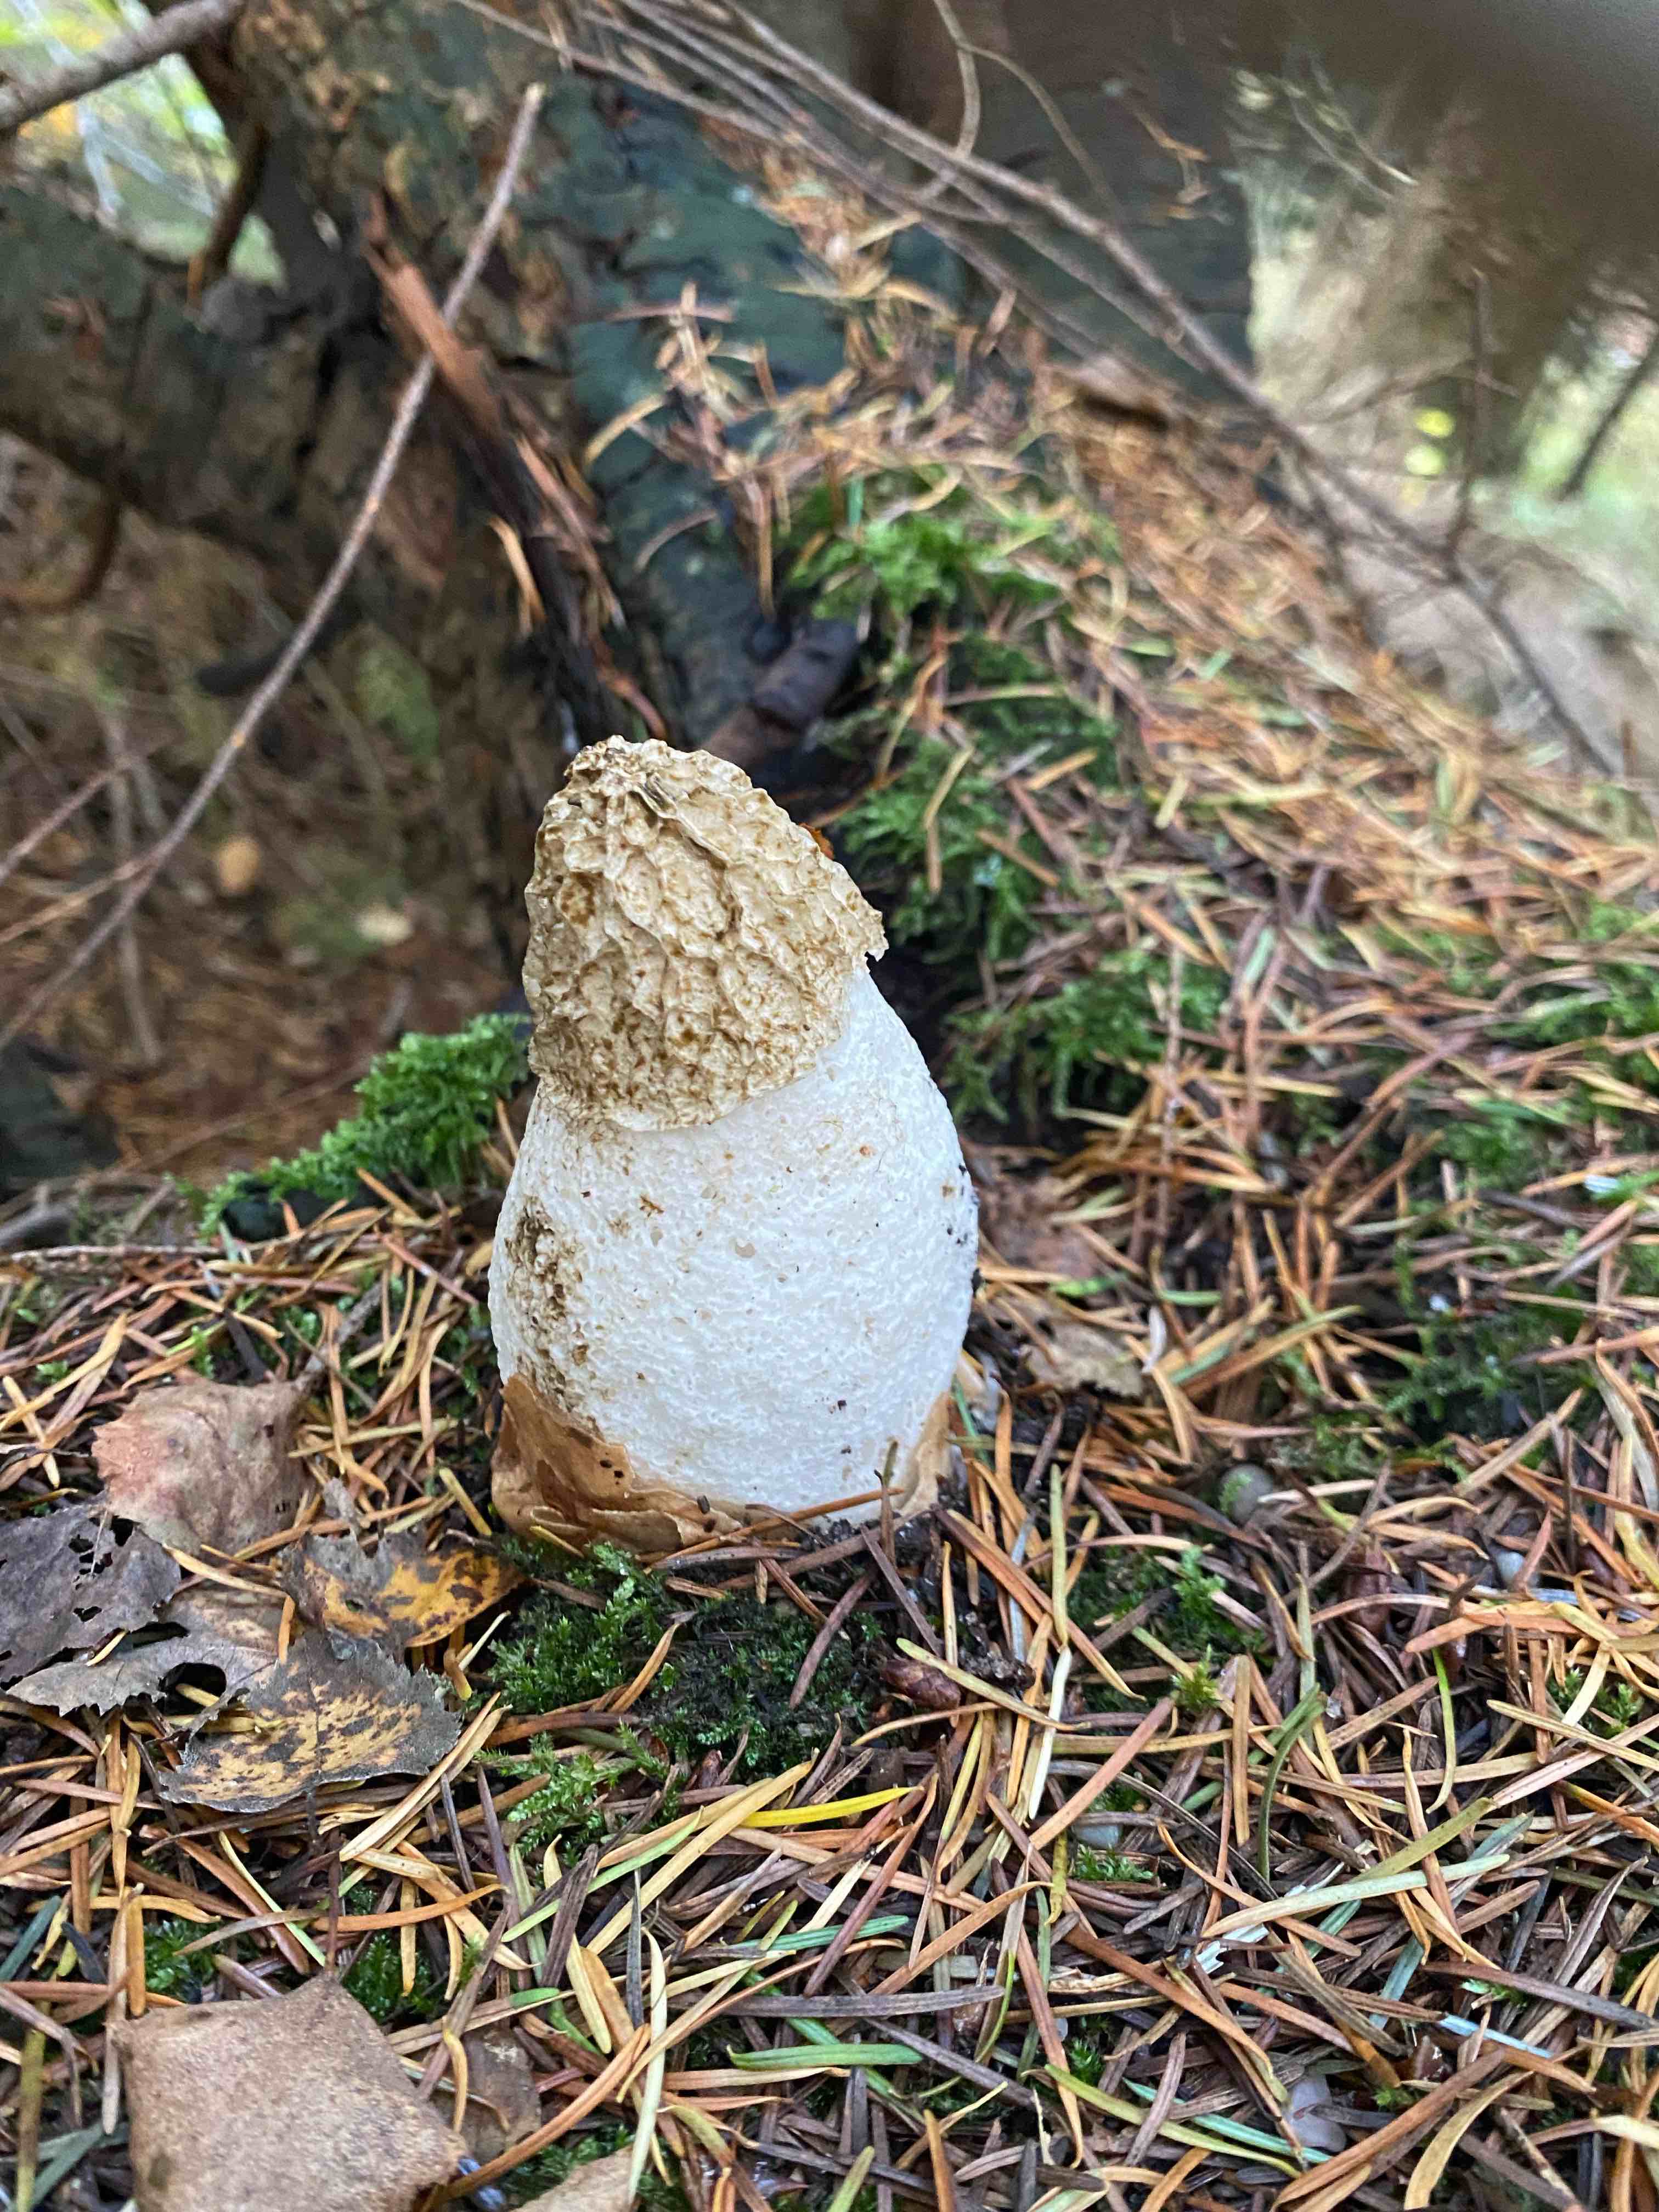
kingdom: Fungi
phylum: Basidiomycota
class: Agaricomycetes
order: Phallales
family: Phallaceae
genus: Phallus
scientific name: Phallus impudicus
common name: almindelig stinksvamp
